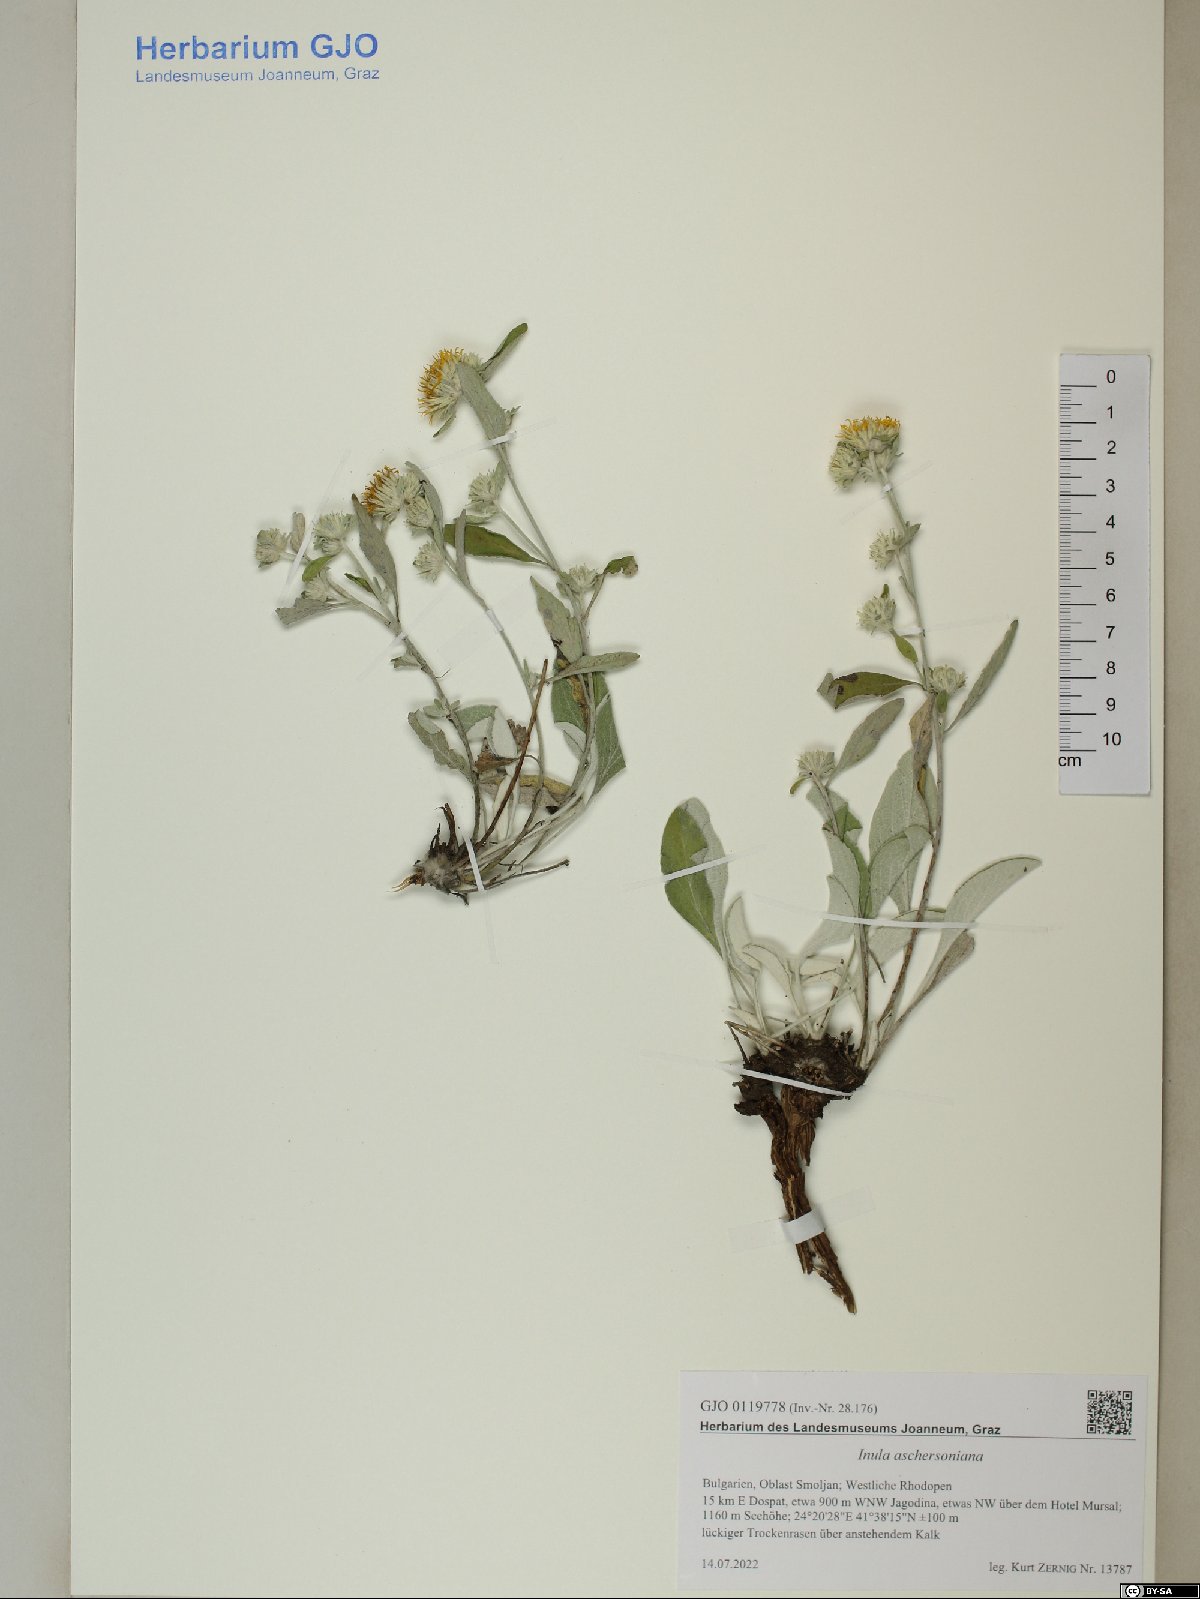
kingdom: Plantae
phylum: Tracheophyta
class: Magnoliopsida
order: Asterales
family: Asteraceae
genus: Pentanema
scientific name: Pentanema aschersonianum
